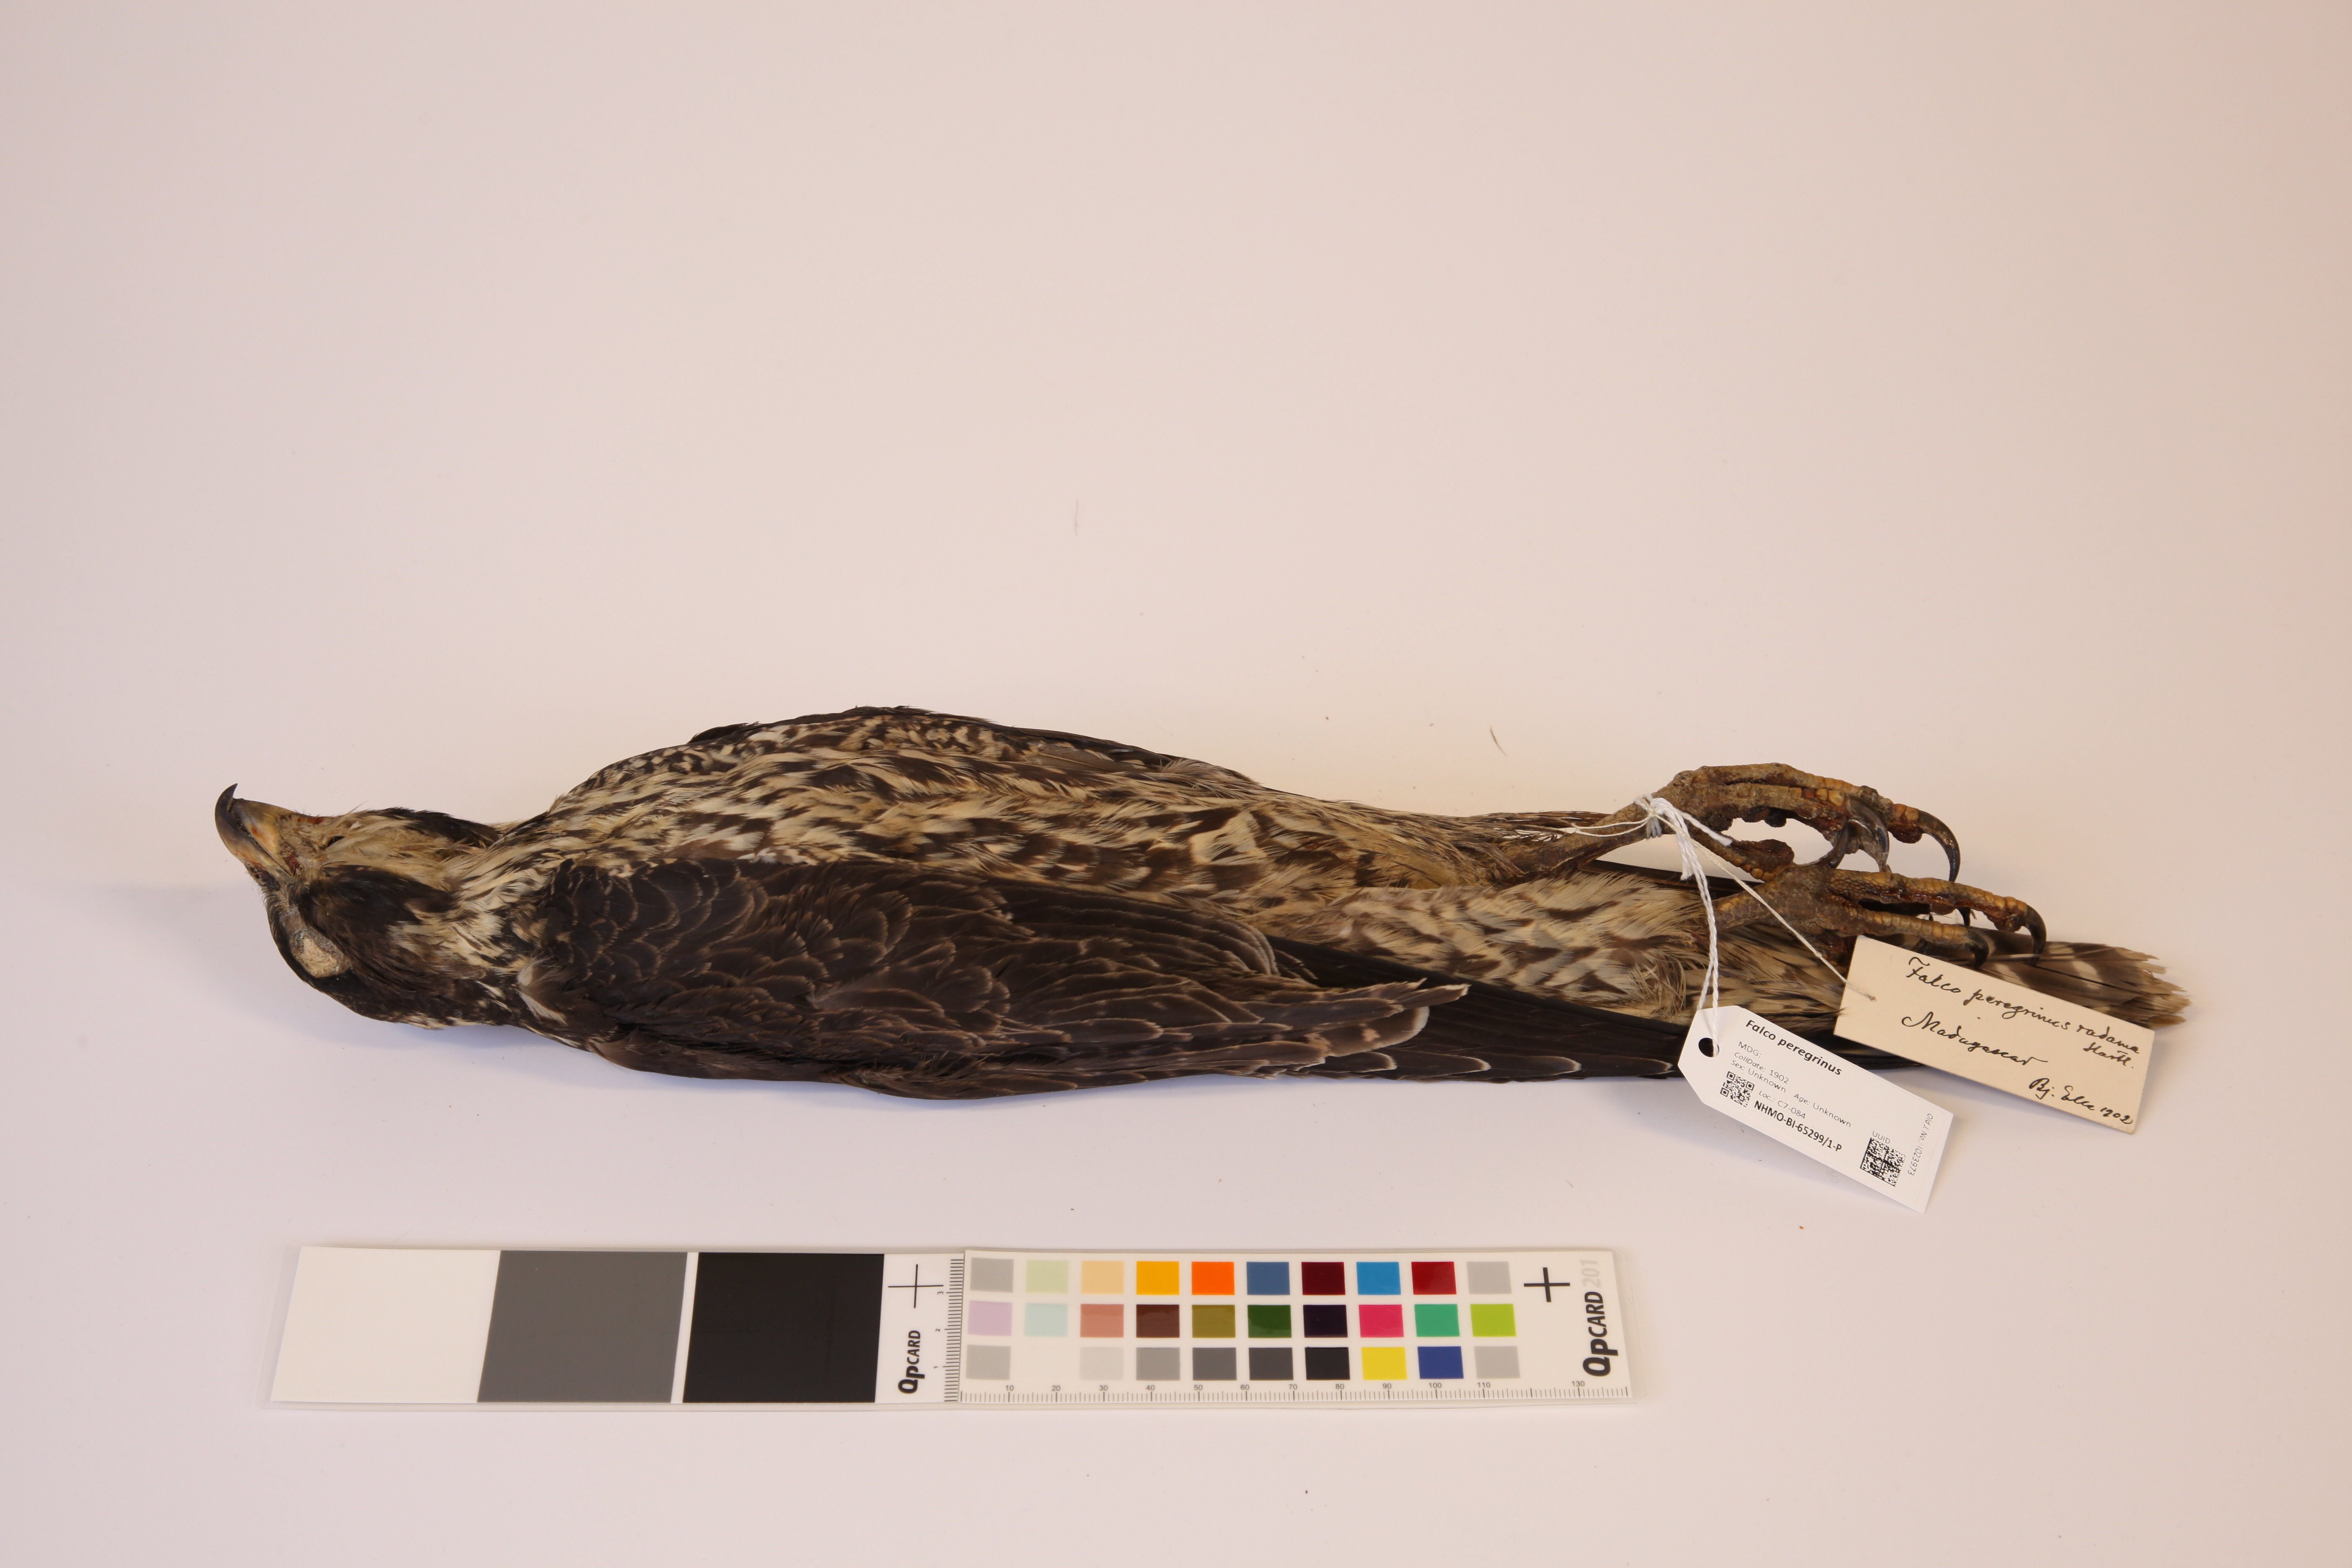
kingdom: Animalia
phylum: Chordata
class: Aves
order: Falconiformes
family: Falconidae
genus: Falco
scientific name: Falco peregrinus
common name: Peregrine falcon
